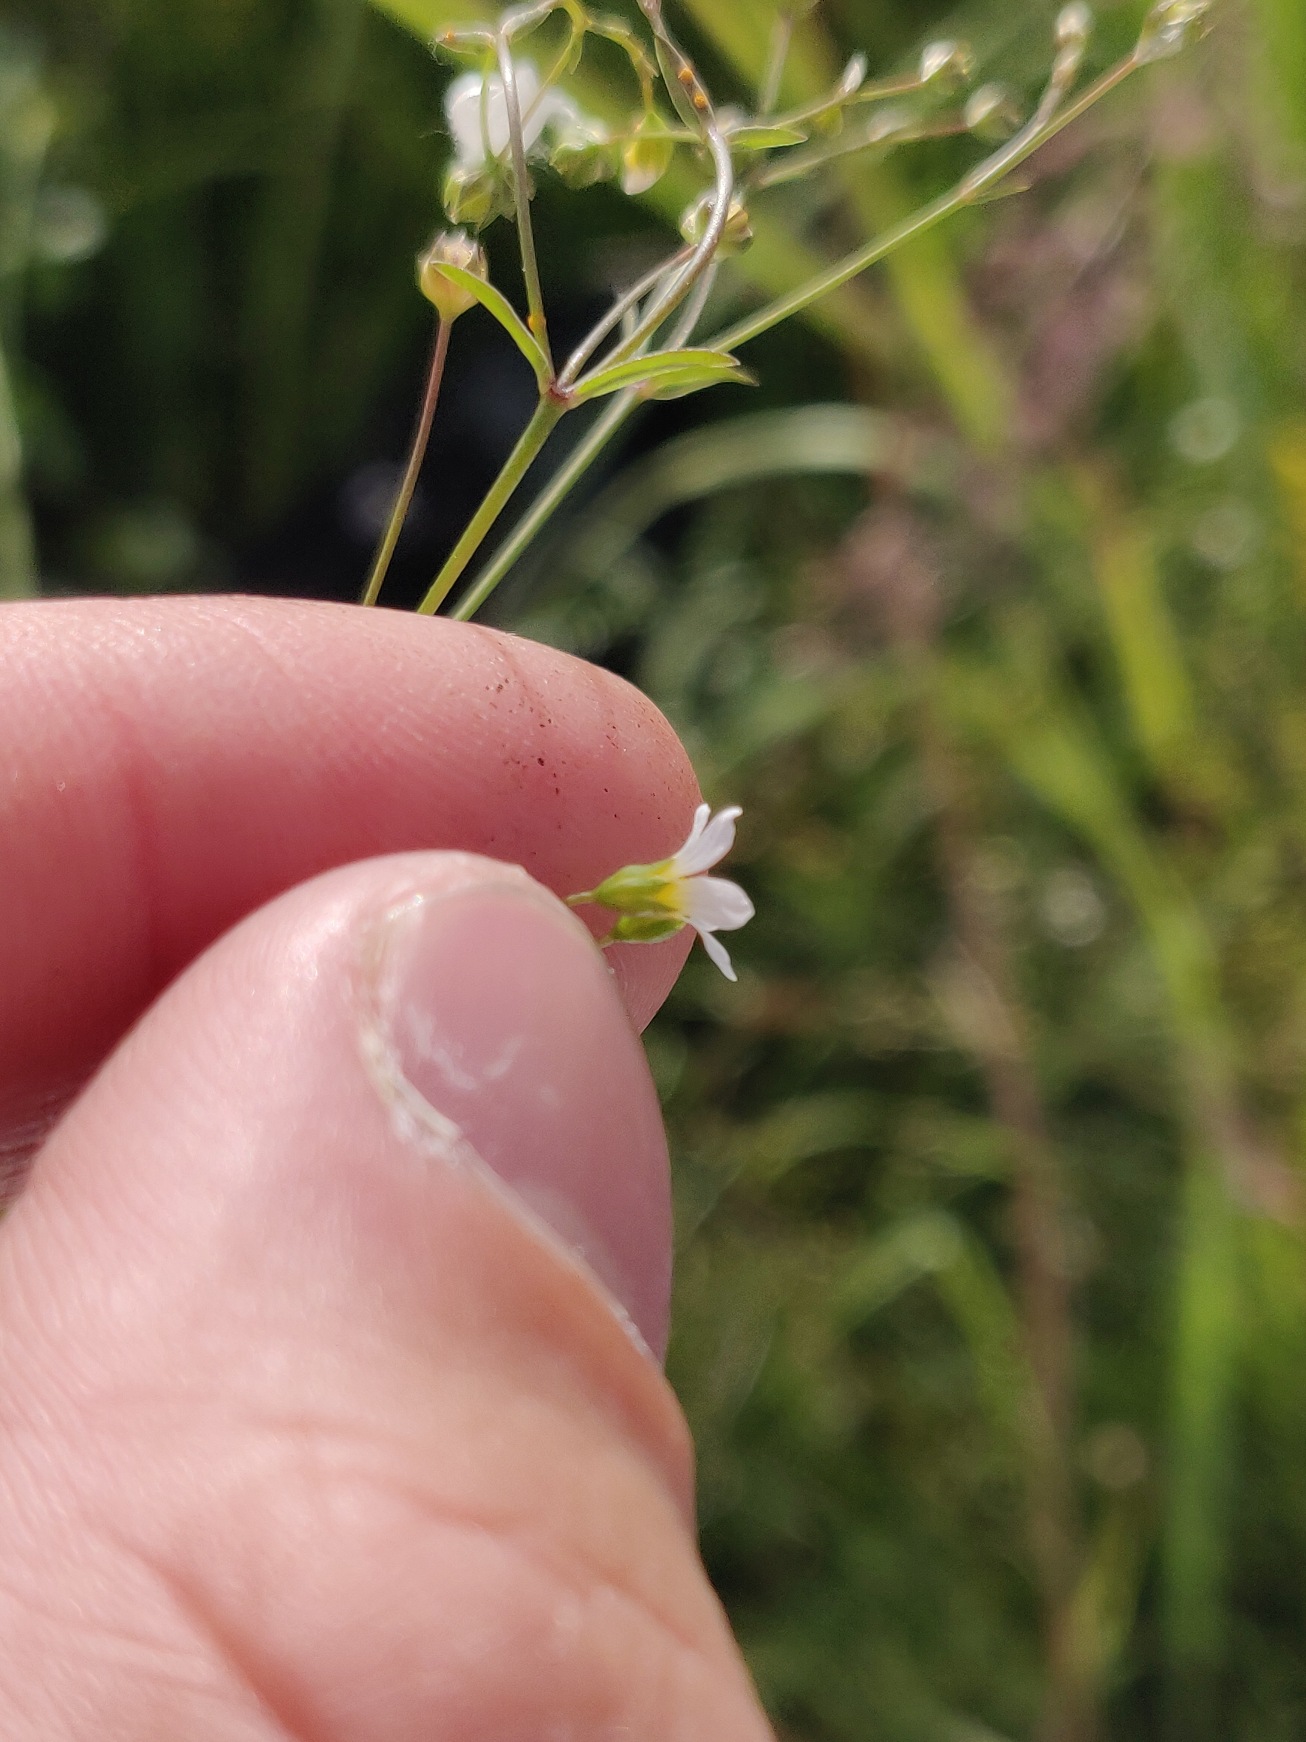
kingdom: Plantae
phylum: Tracheophyta
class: Magnoliopsida
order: Malpighiales
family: Linaceae
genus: Linum
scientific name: Linum catharticum
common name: Vild hør
